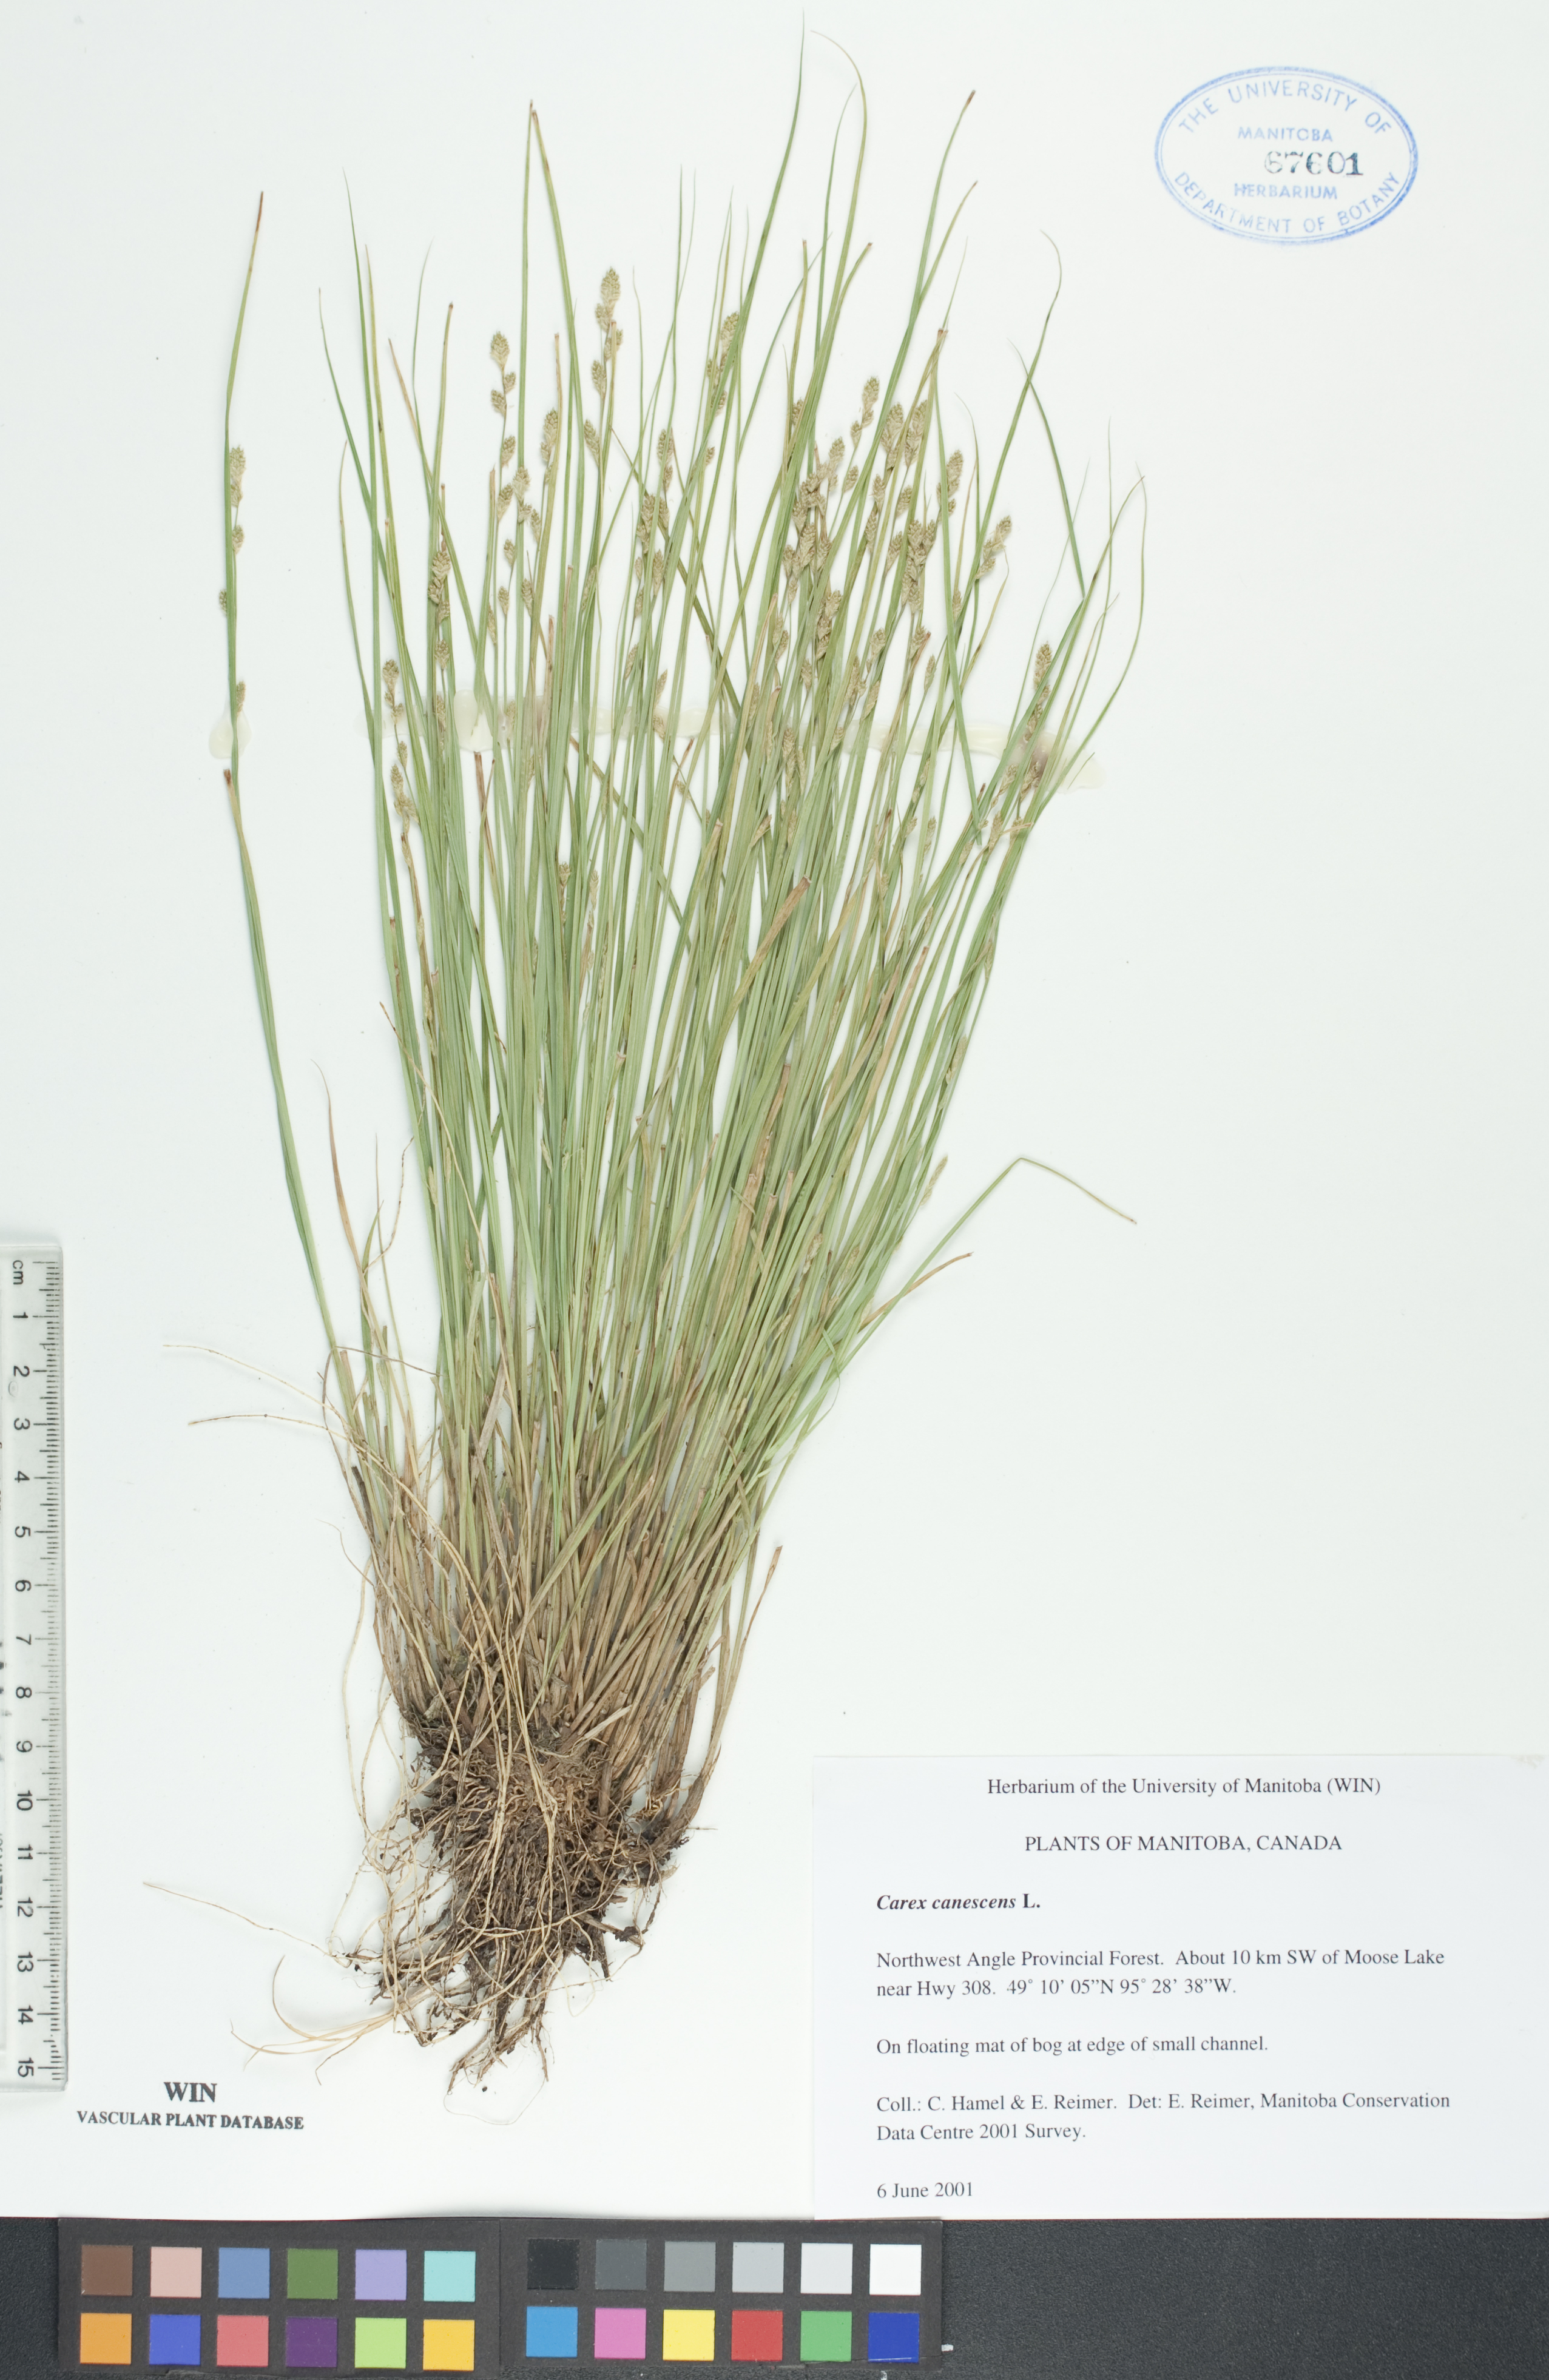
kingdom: Plantae
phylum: Tracheophyta
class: Liliopsida
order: Poales
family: Cyperaceae
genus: Carex
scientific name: Carex canescens
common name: White sedge
